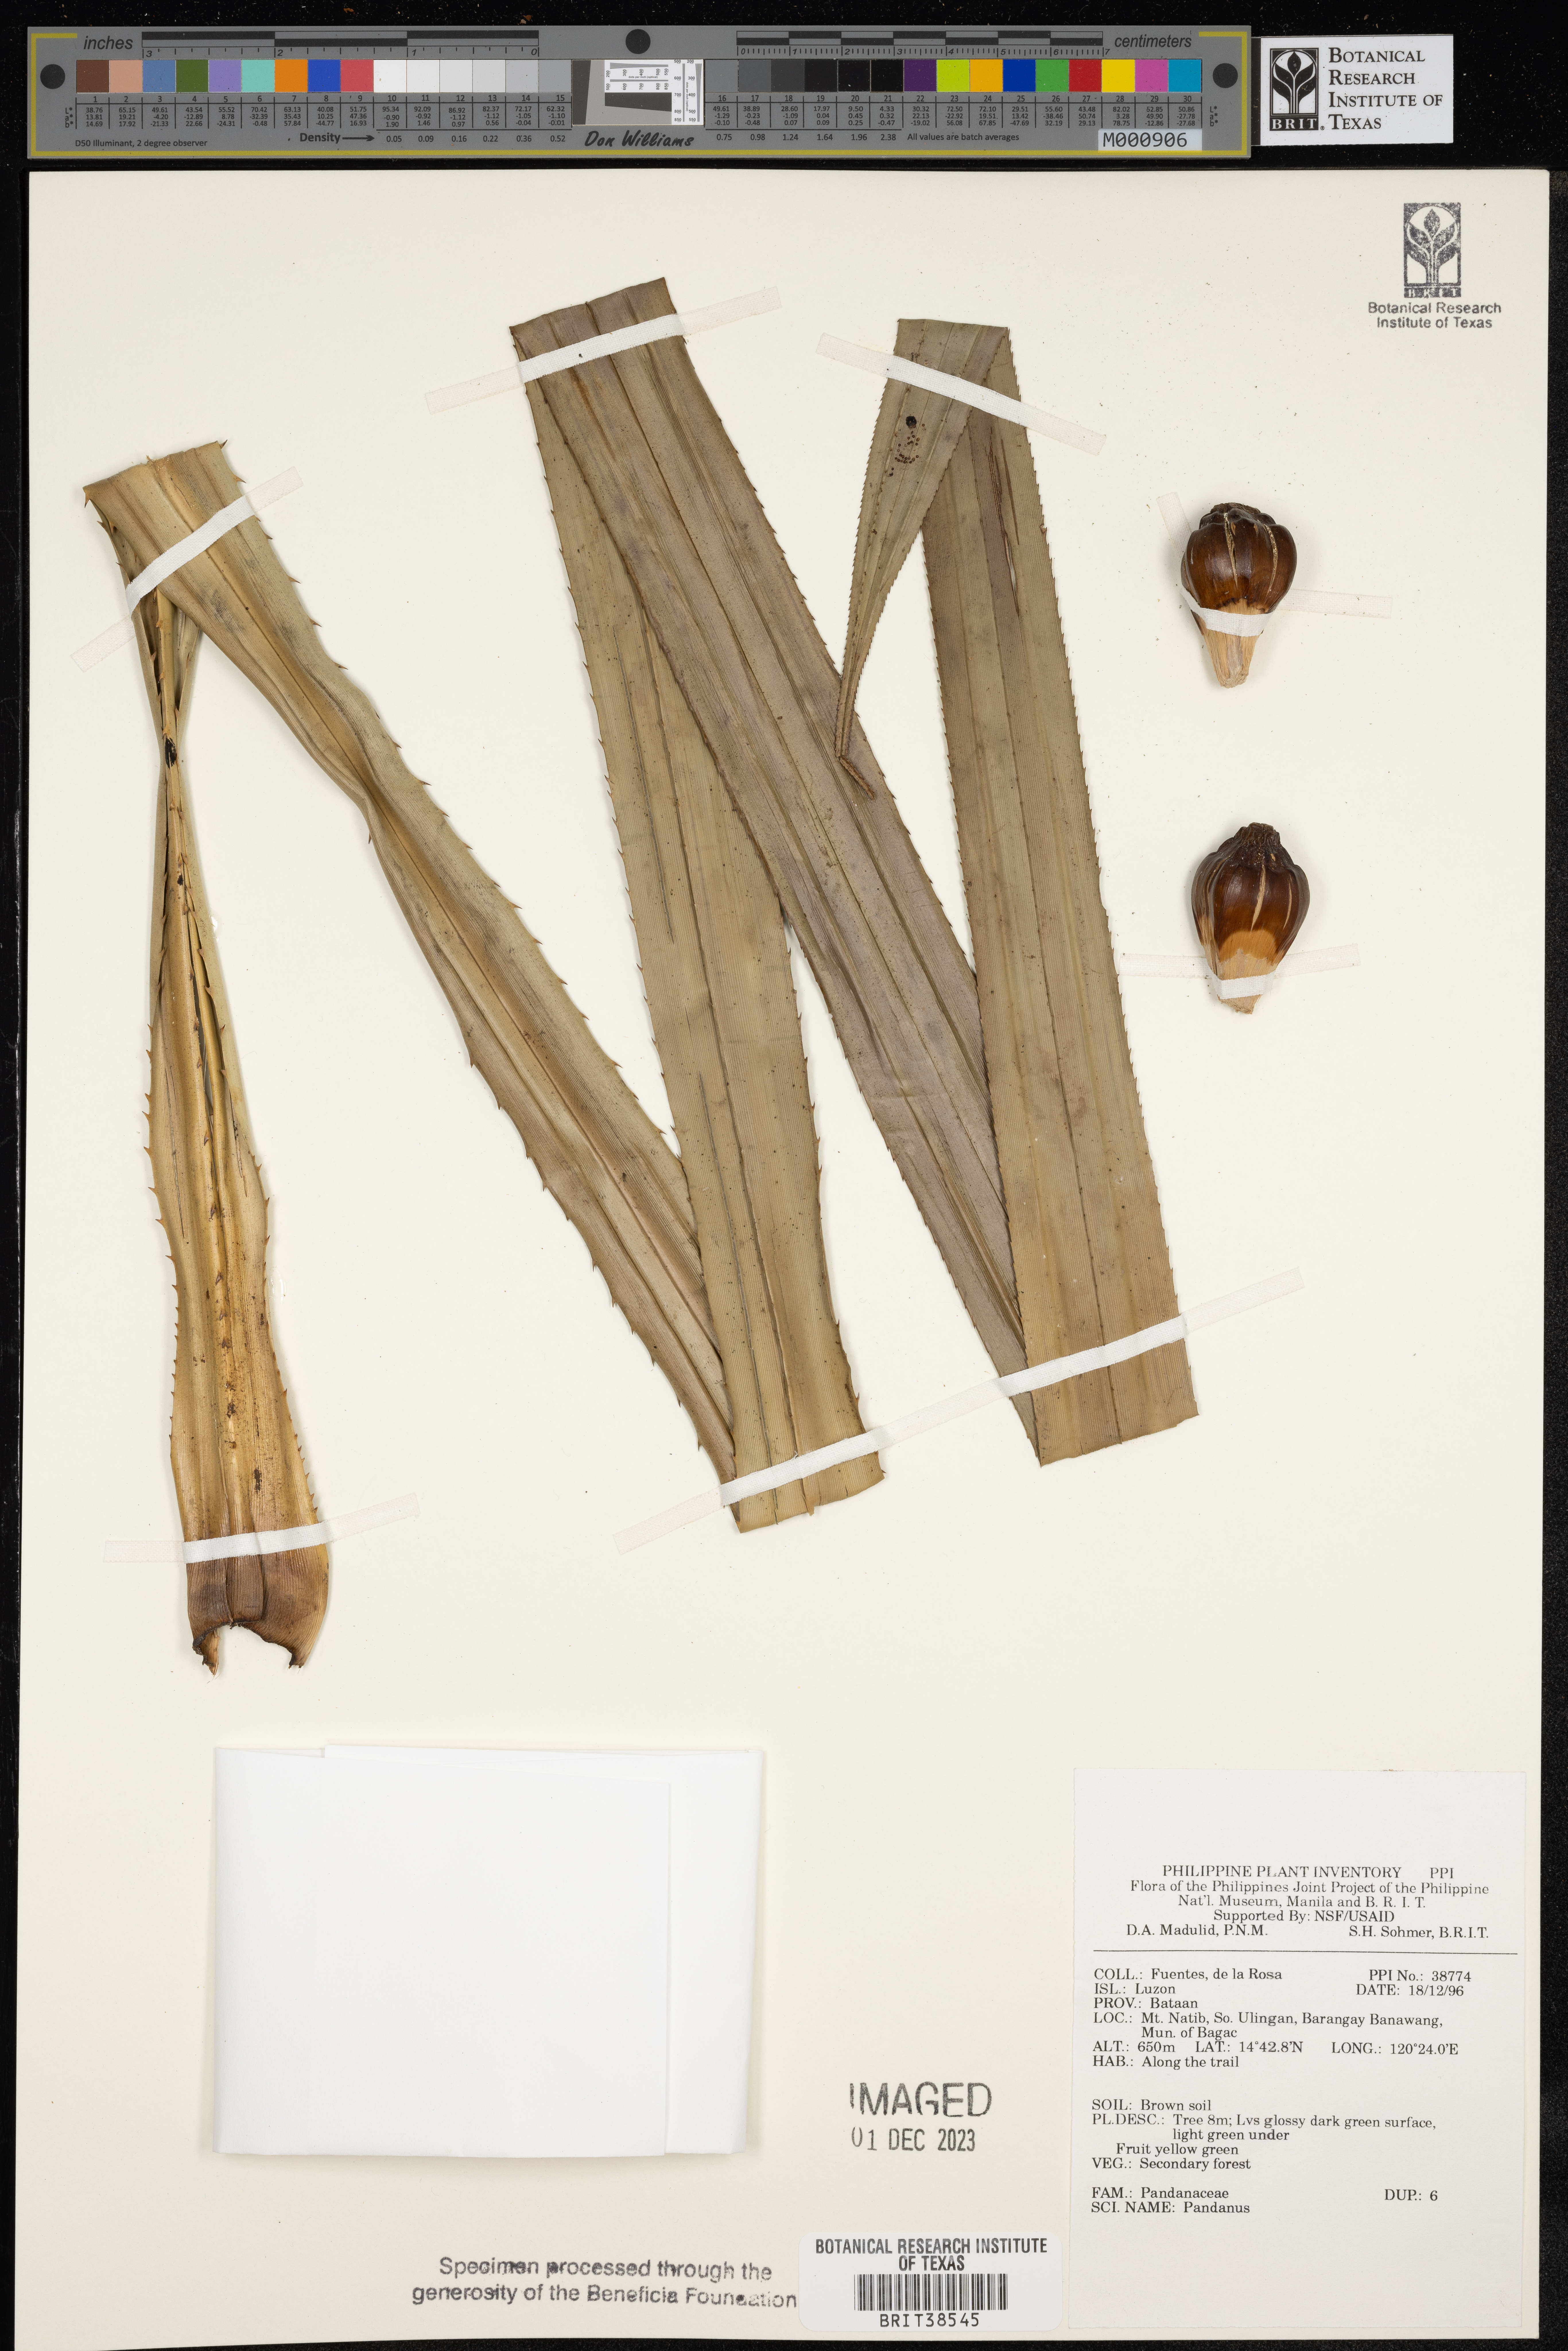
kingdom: Plantae
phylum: Tracheophyta
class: Liliopsida
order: Pandanales
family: Pandanaceae
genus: Pandanus
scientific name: Pandanus
